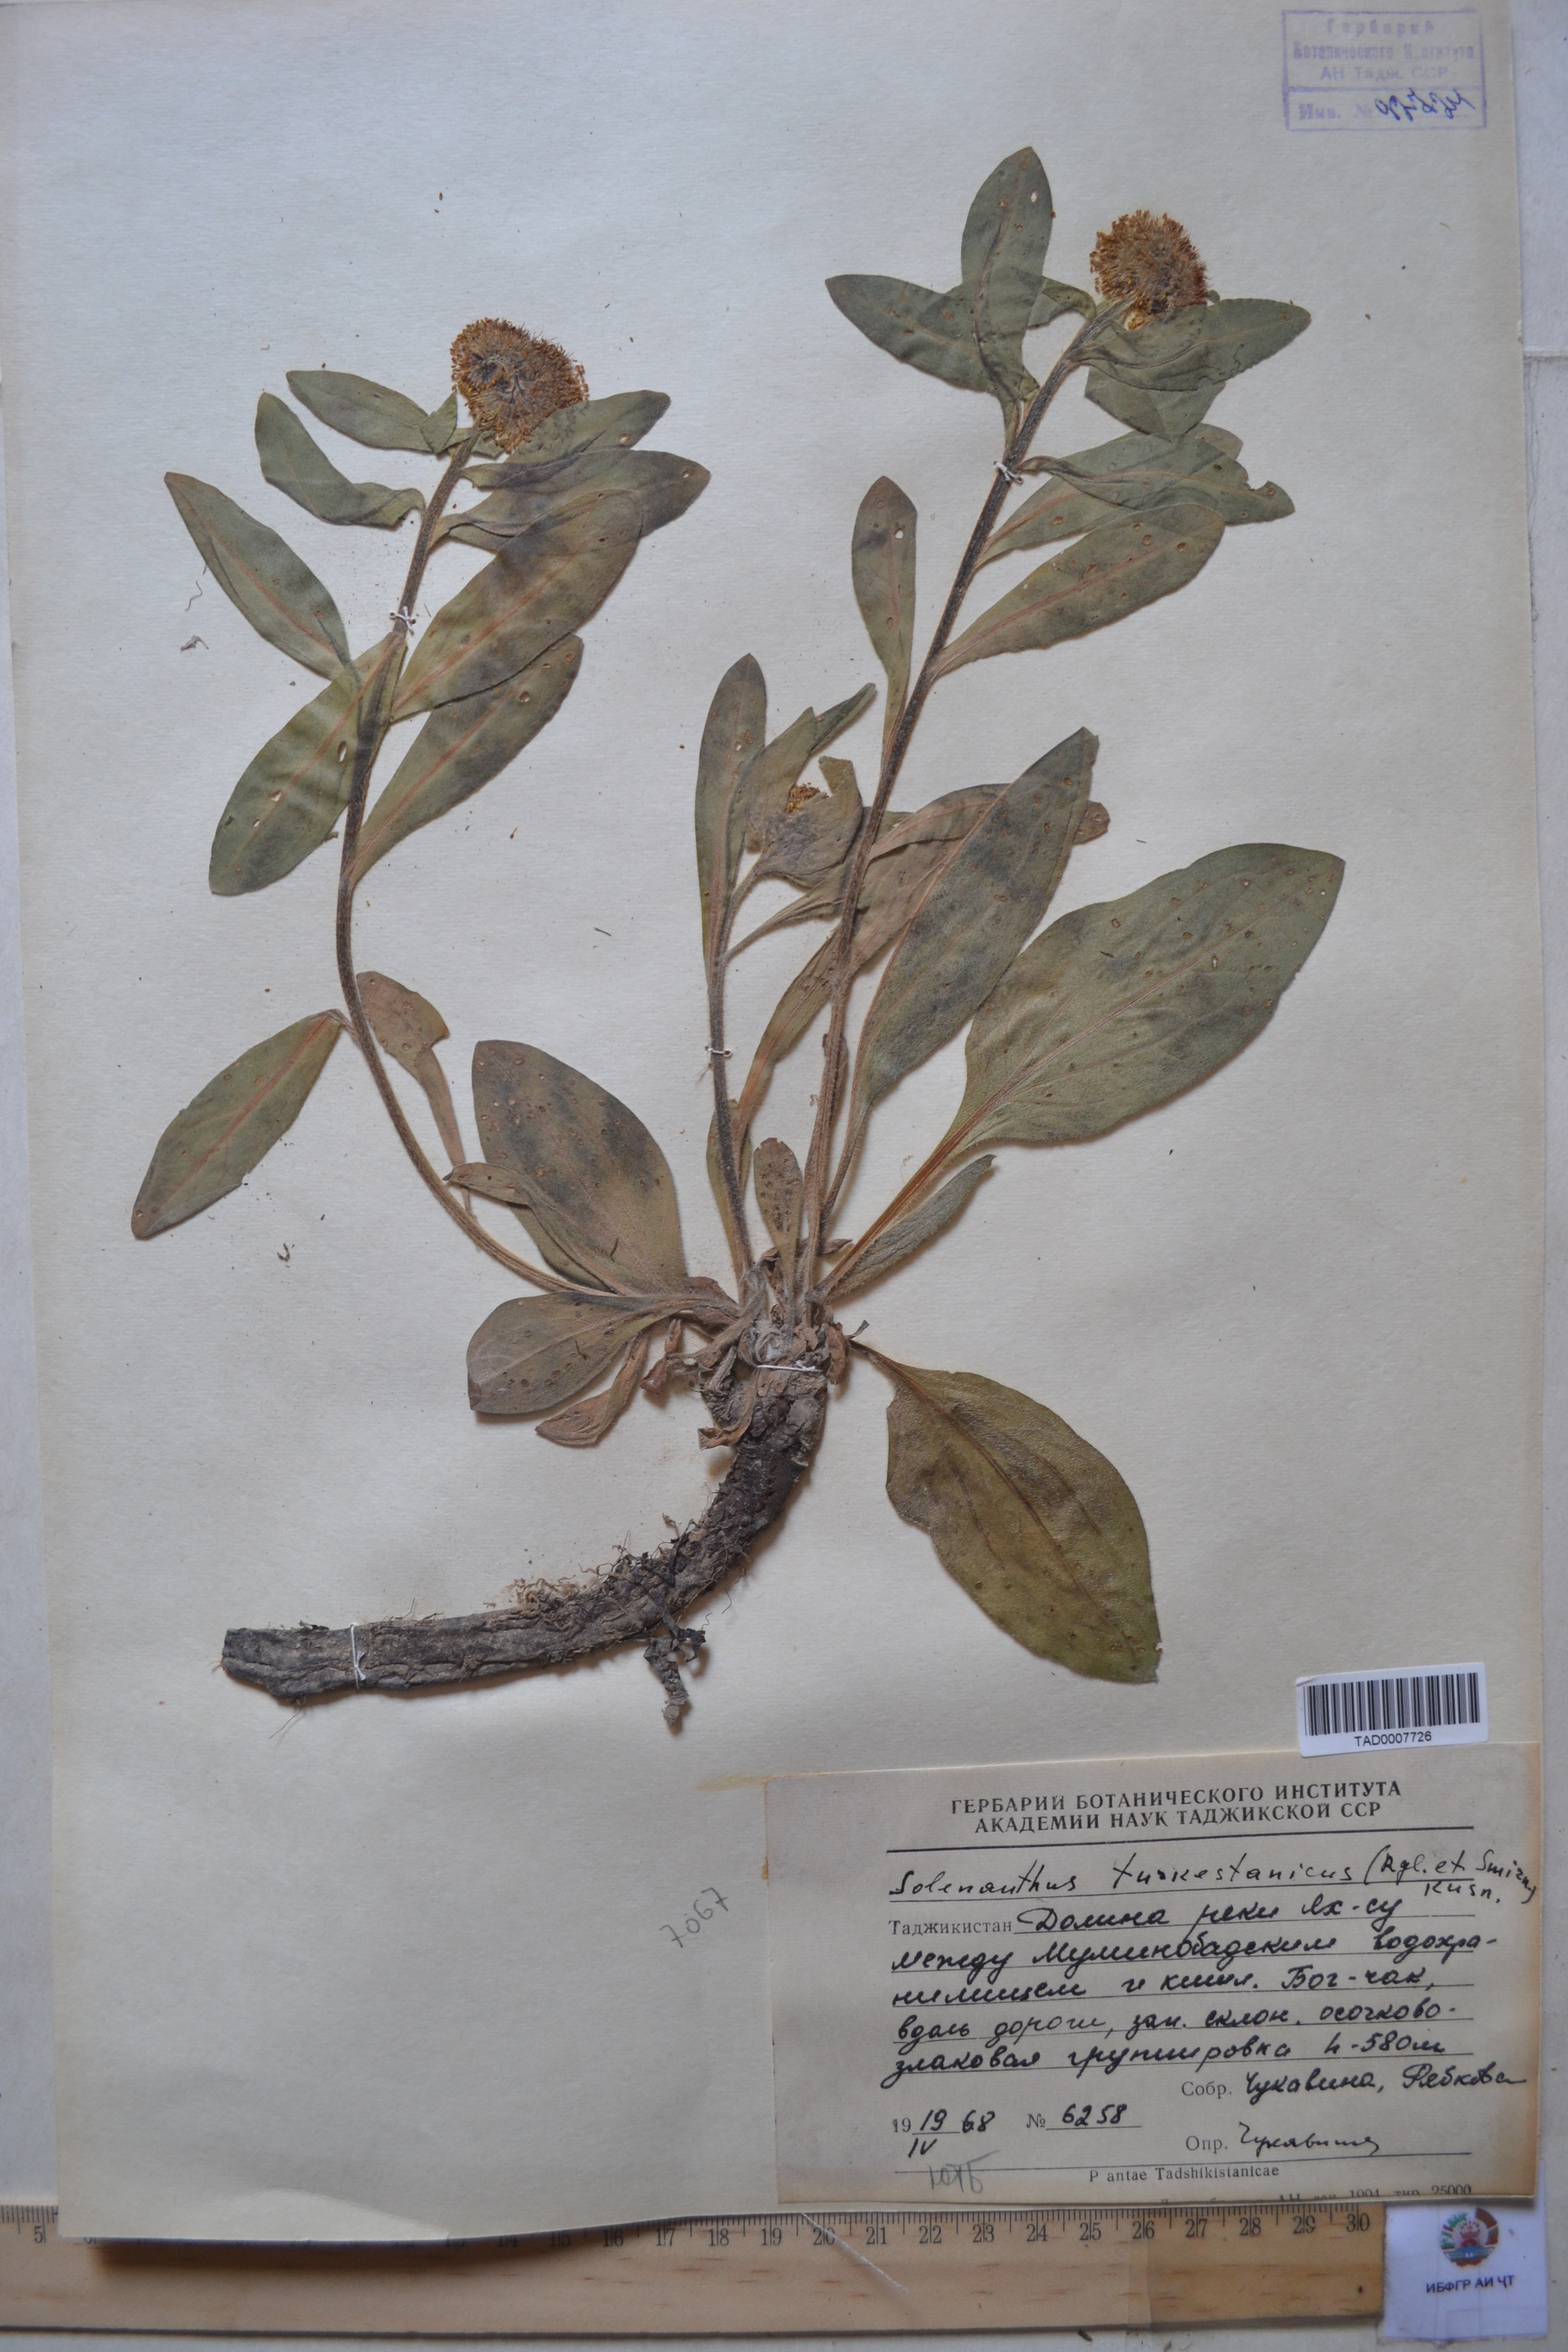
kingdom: Plantae
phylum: Tracheophyta
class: Magnoliopsida
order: Boraginales
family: Boraginaceae
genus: Solenanthus
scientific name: Solenanthus turkestanicus
